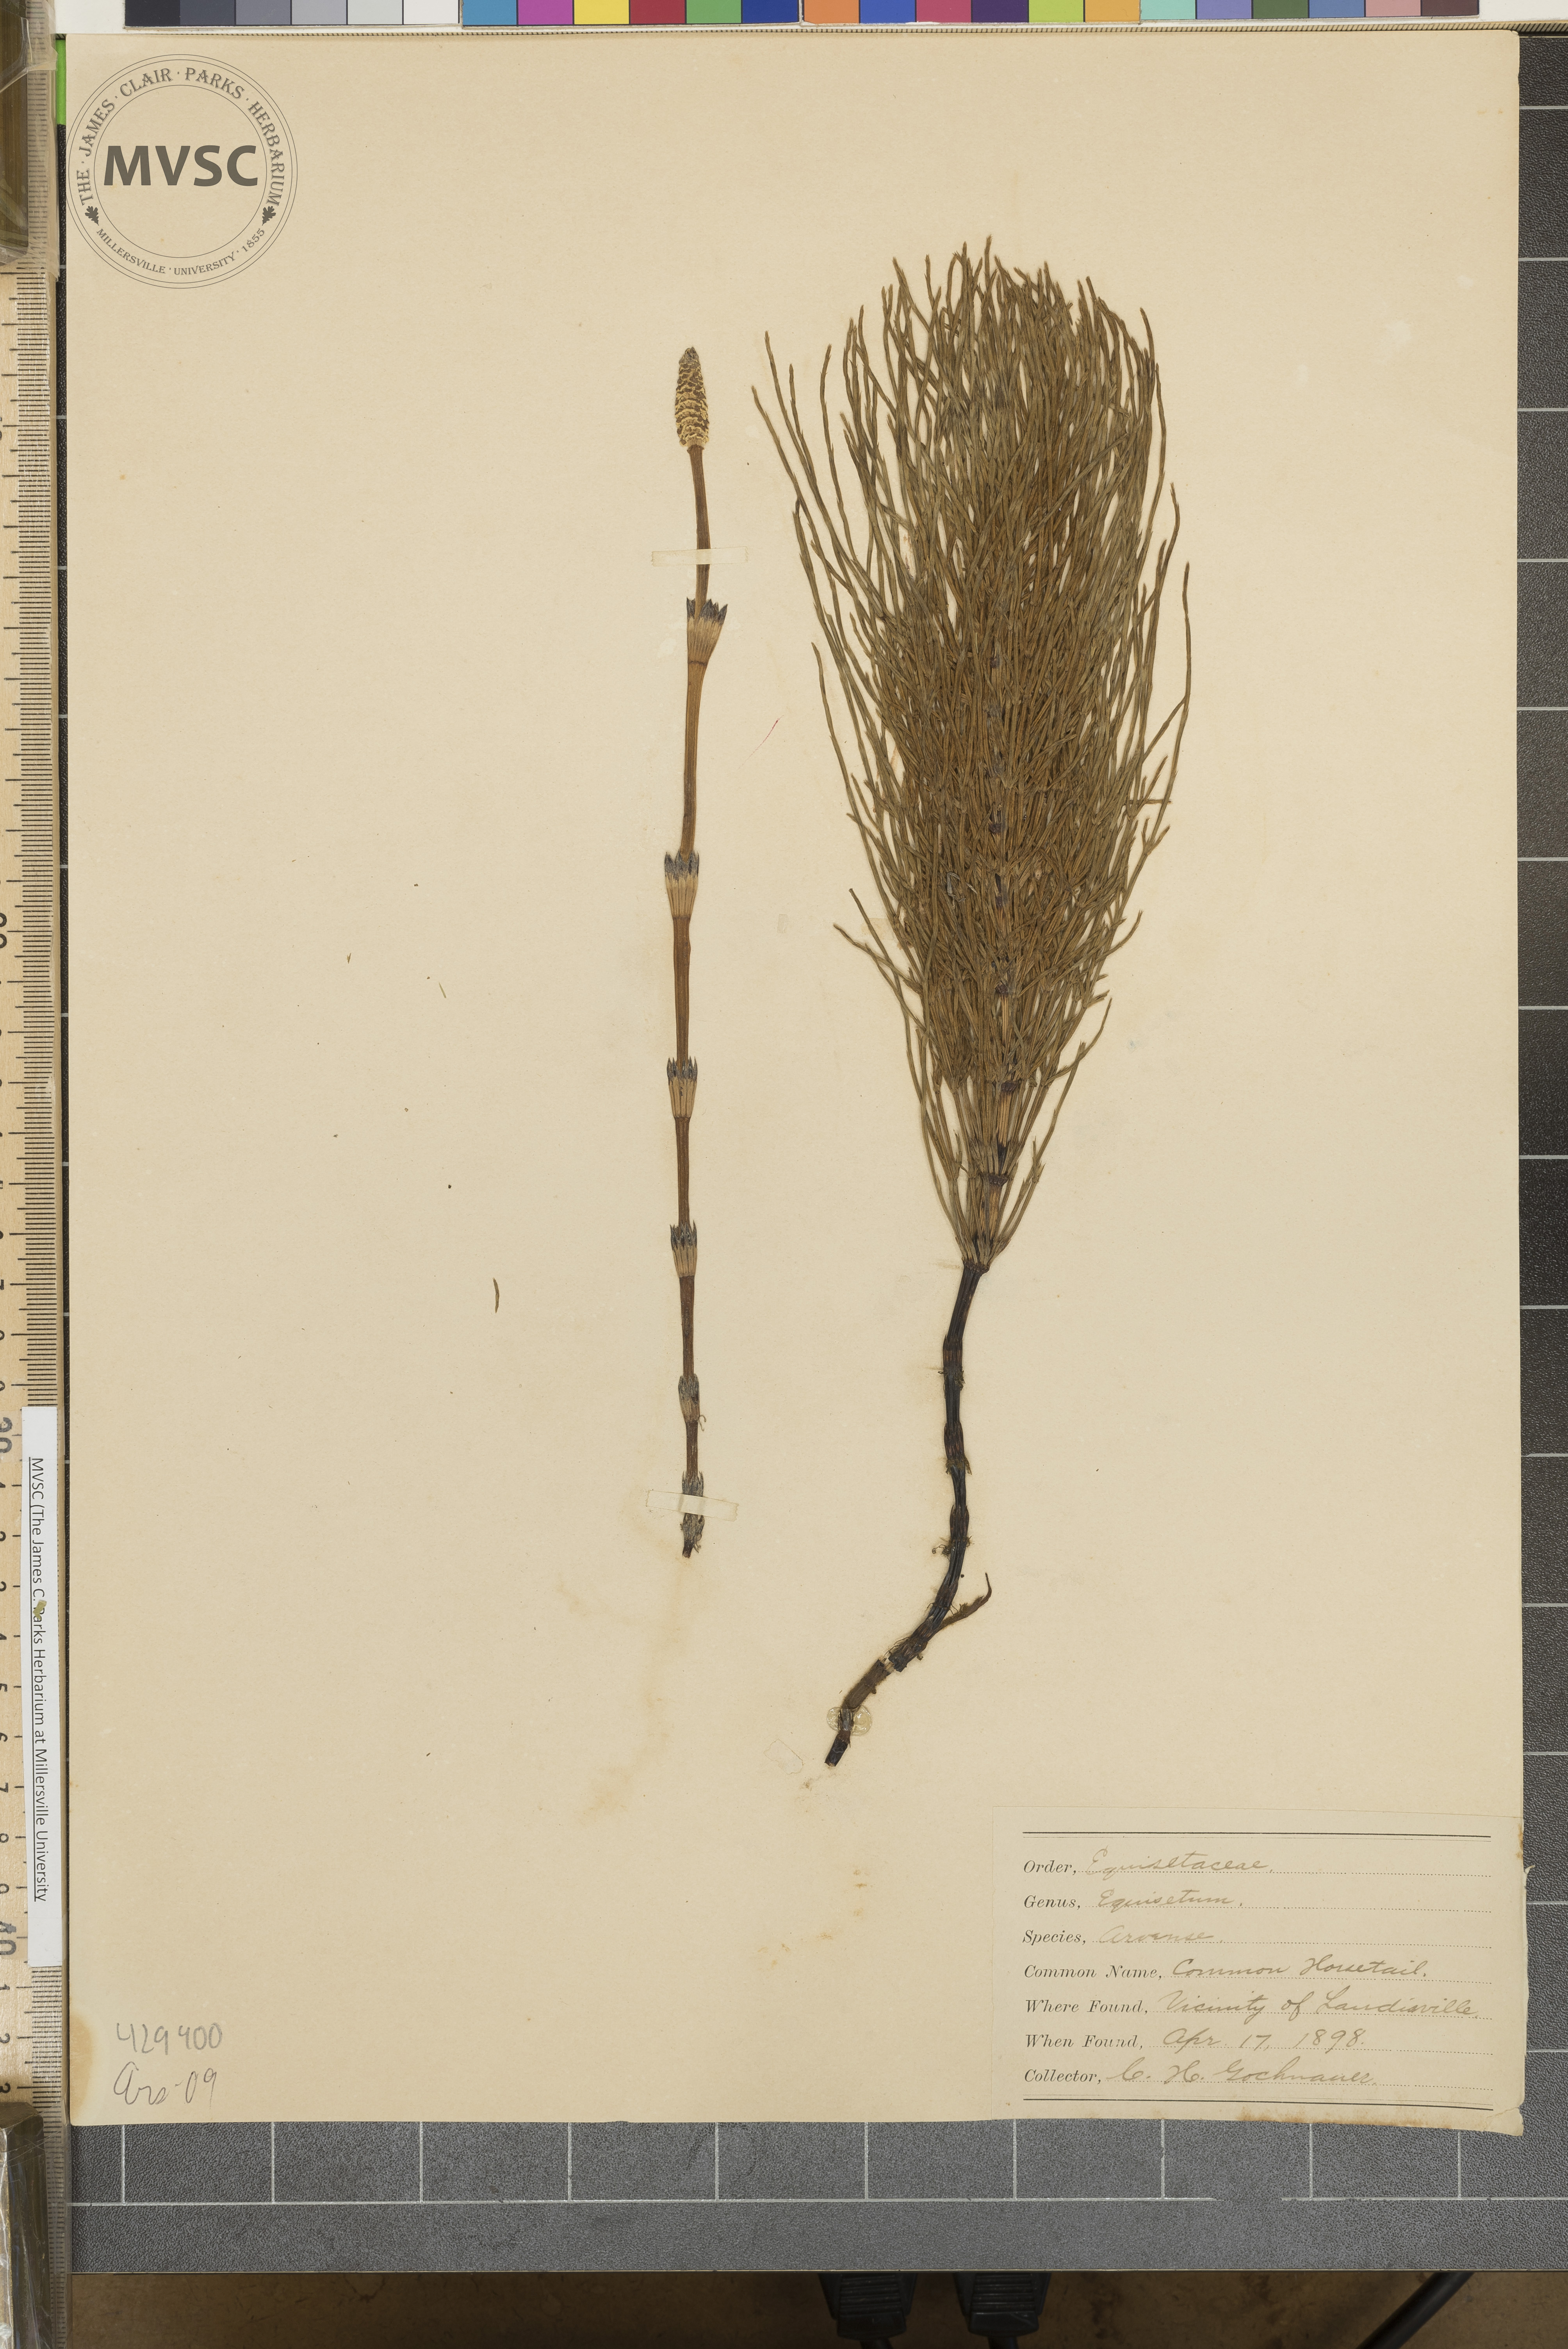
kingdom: Plantae
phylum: Tracheophyta
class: Polypodiopsida
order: Equisetales
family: Equisetaceae
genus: Equisetum
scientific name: Equisetum arvense
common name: Field horsetail
